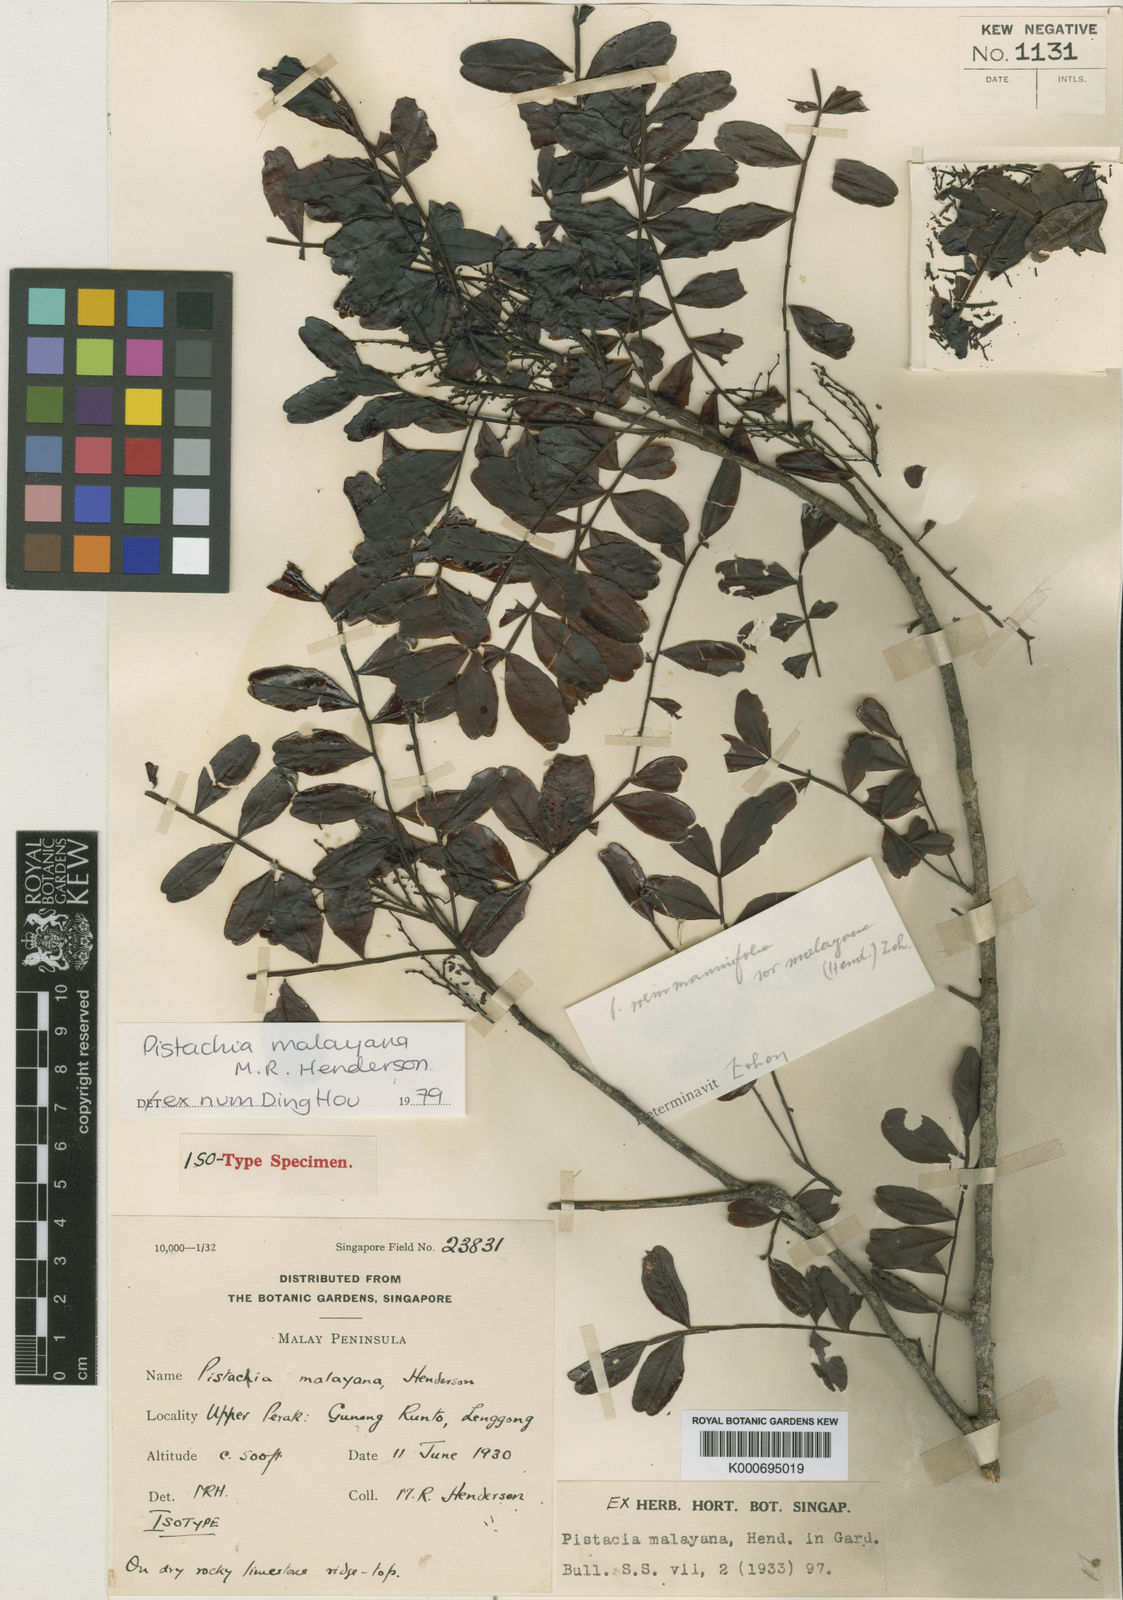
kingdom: Plantae
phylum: Tracheophyta
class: Magnoliopsida
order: Sapindales
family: Anacardiaceae
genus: Pistacia
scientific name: Pistacia weinmannifolia
